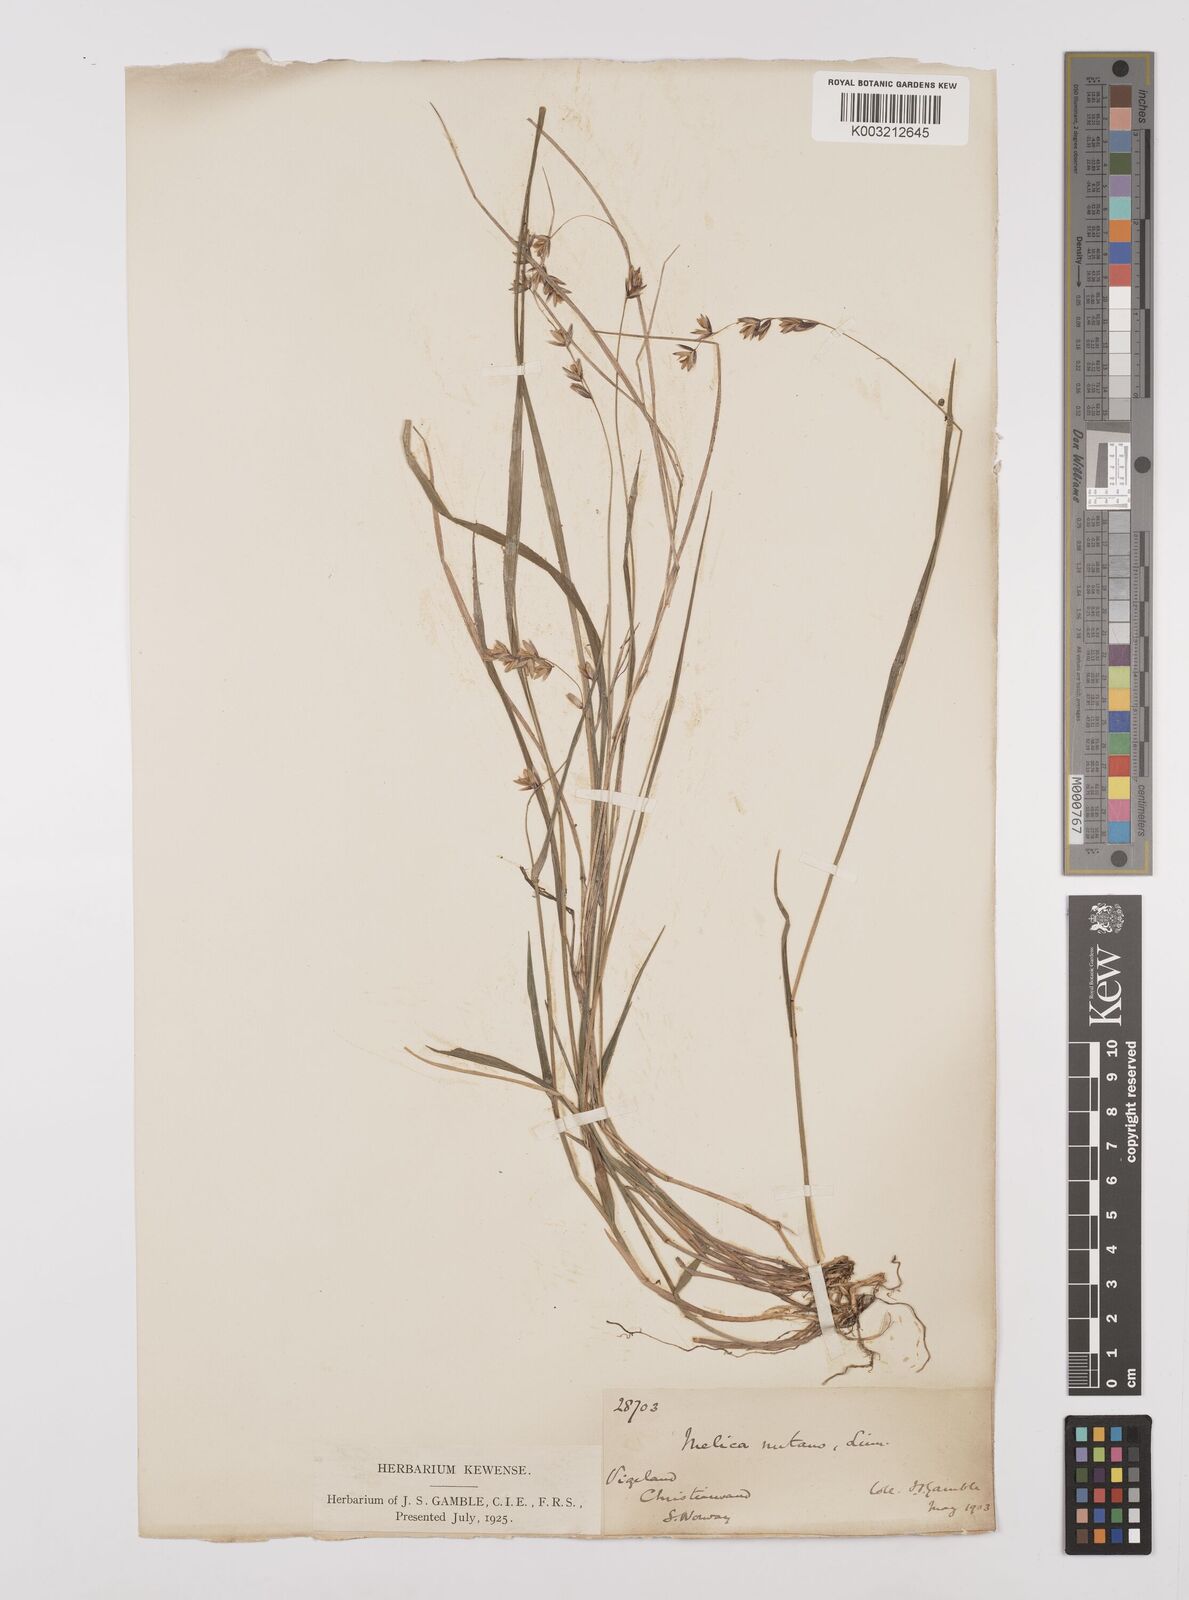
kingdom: Plantae
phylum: Tracheophyta
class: Liliopsida
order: Poales
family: Poaceae
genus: Melica
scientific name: Melica
